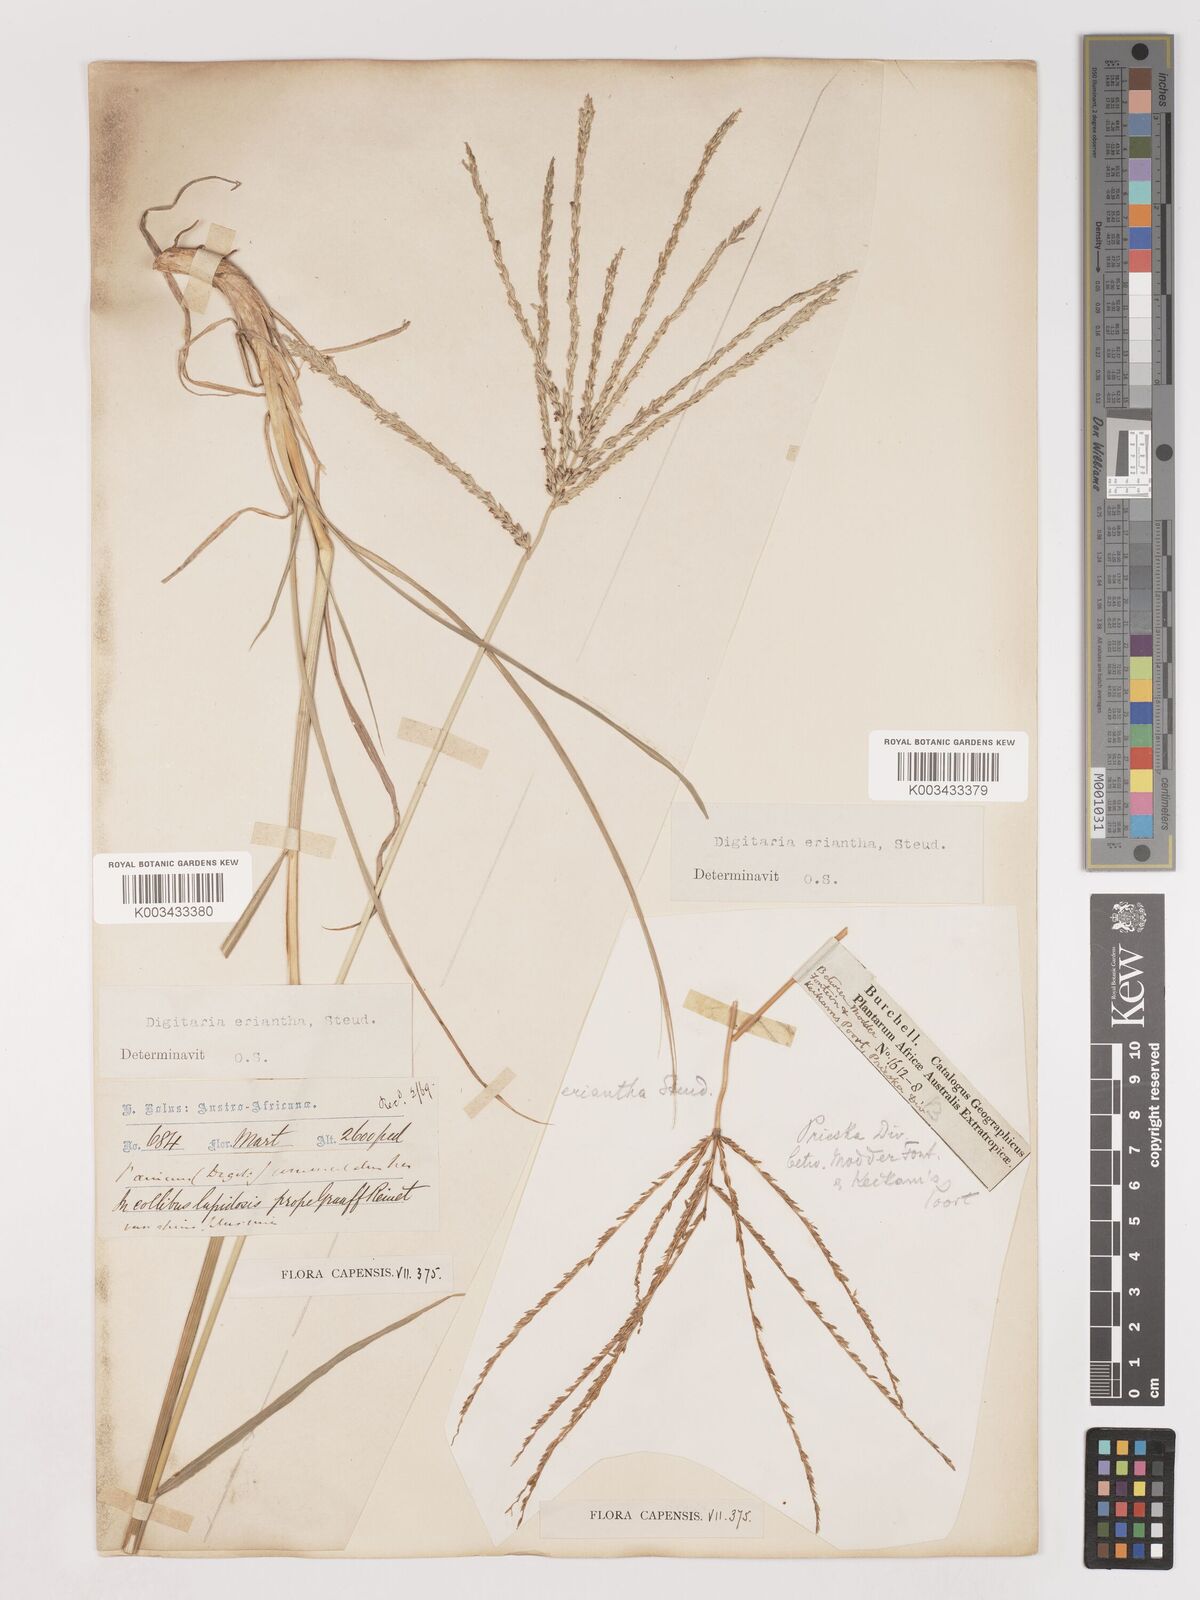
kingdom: Plantae
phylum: Tracheophyta
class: Liliopsida
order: Poales
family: Poaceae
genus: Digitaria
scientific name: Digitaria eriantha
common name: Digitgrass
